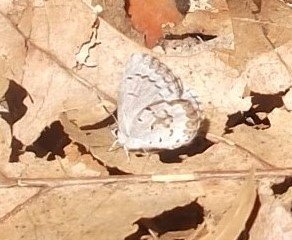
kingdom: Animalia
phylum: Arthropoda
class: Insecta
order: Lepidoptera
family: Lycaenidae
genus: Celastrina
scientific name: Celastrina lucia
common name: Northern Spring Azure
